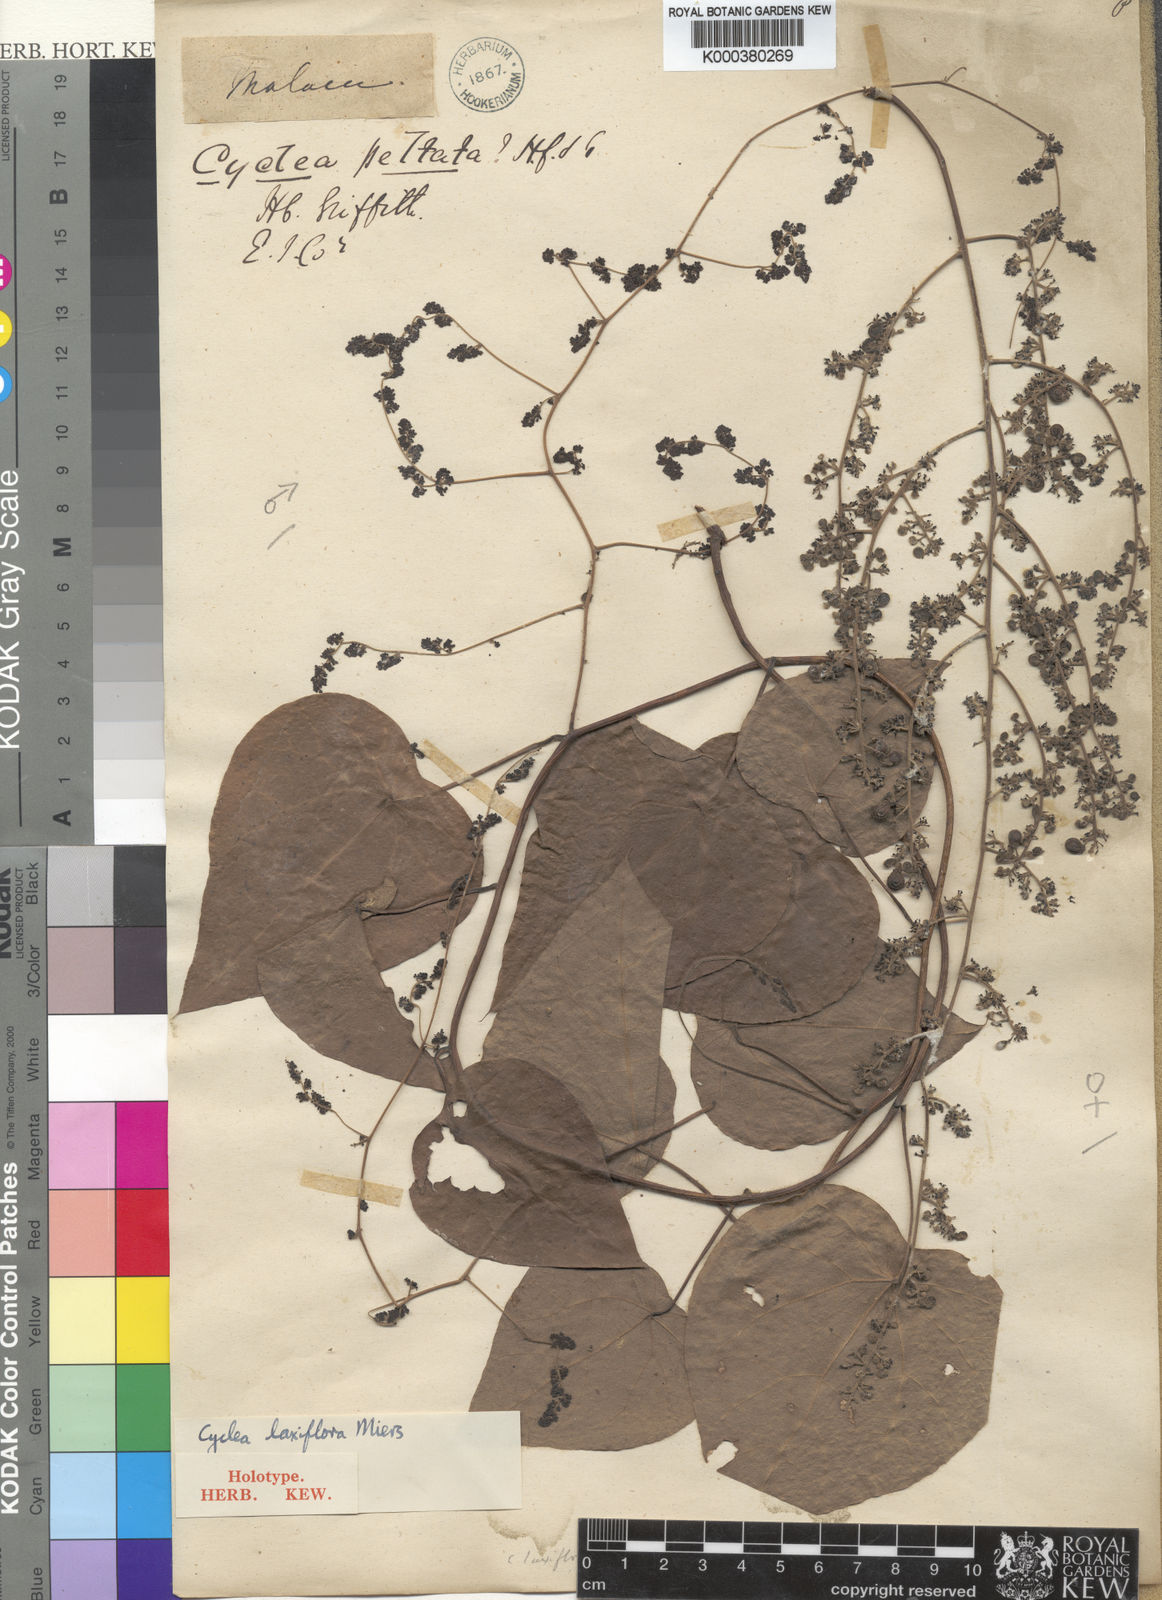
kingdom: Plantae
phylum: Tracheophyta
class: Magnoliopsida
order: Ranunculales
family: Menispermaceae
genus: Cyclea
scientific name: Cyclea laxiflora
